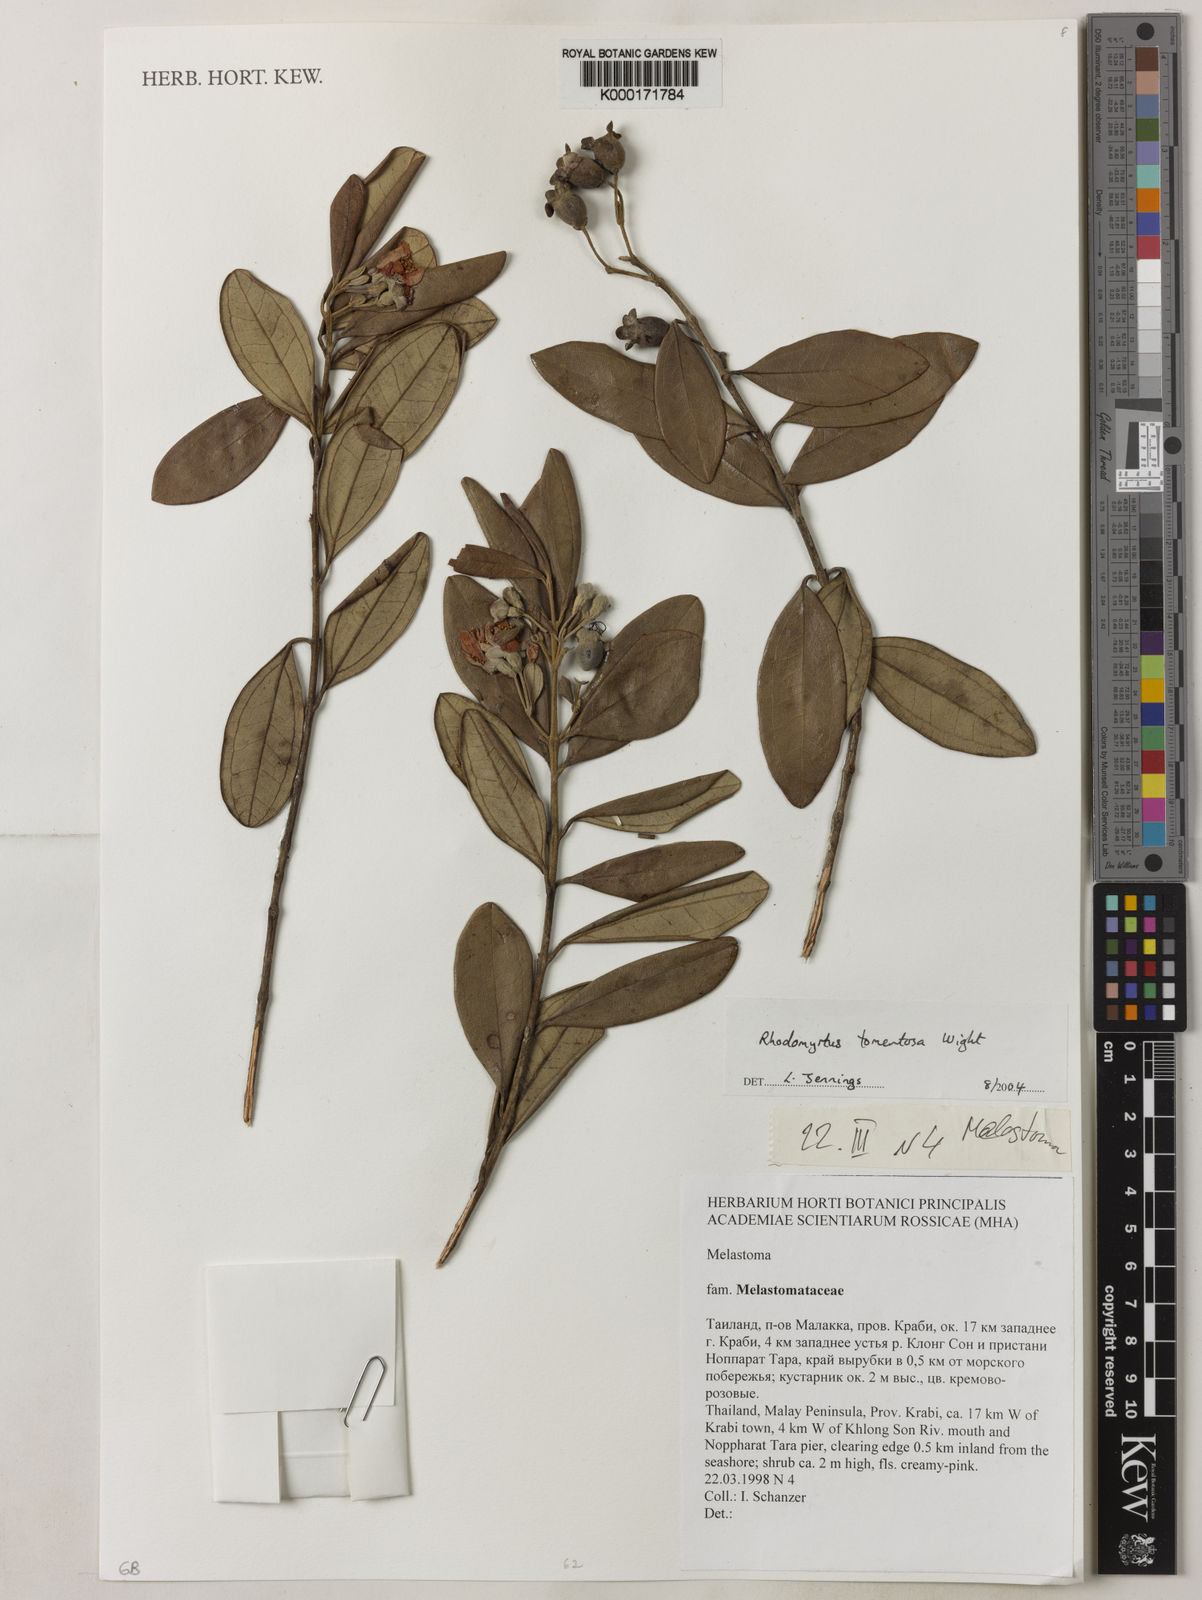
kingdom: Plantae
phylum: Tracheophyta
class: Magnoliopsida
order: Myrtales
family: Myrtaceae
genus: Rhodomyrtus
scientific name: Rhodomyrtus
